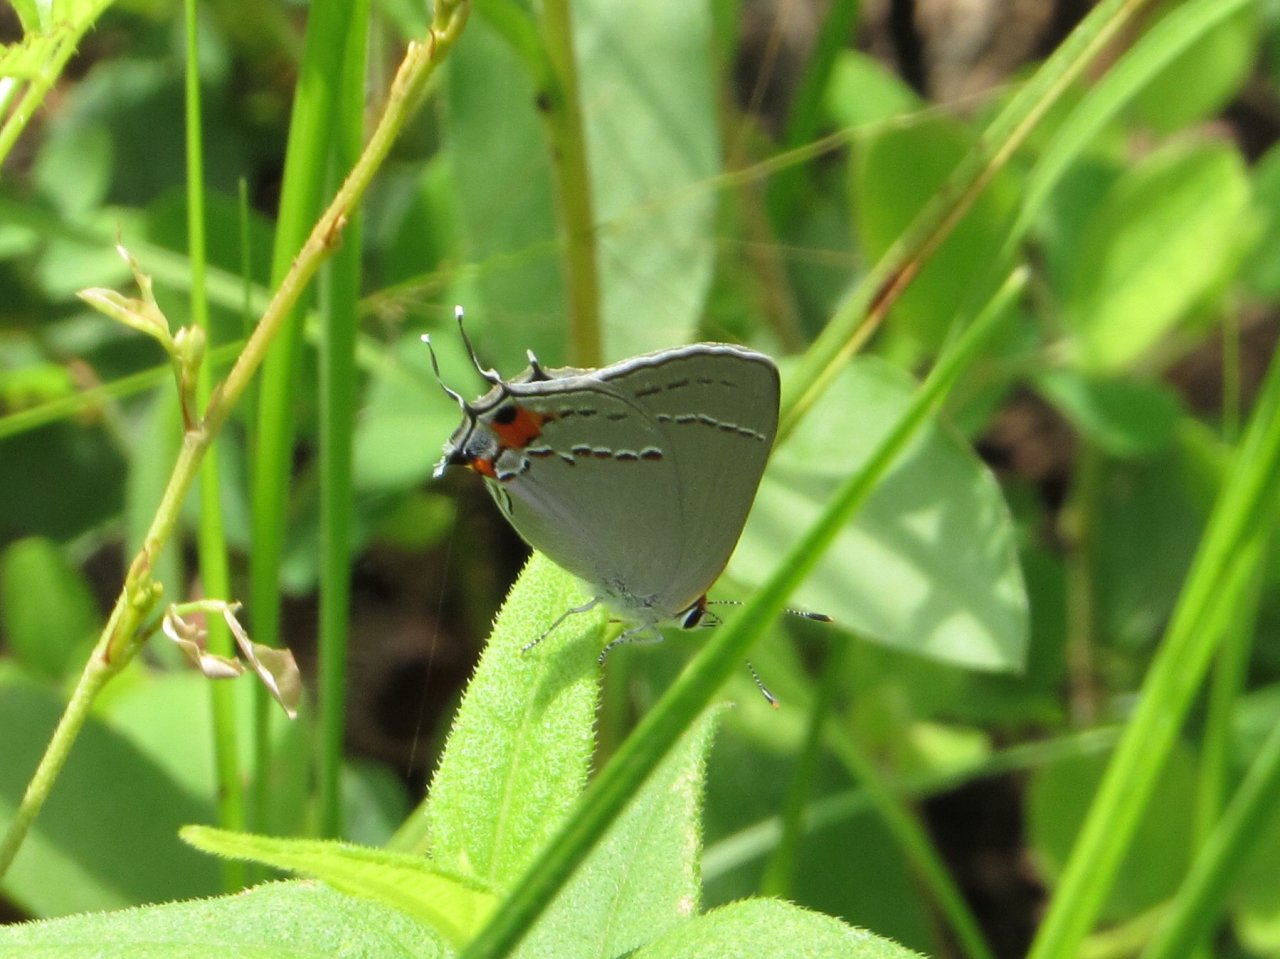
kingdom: Animalia
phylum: Arthropoda
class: Insecta
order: Lepidoptera
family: Lycaenidae
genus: Strymon
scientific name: Strymon melinus
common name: Gray Hairstreak
